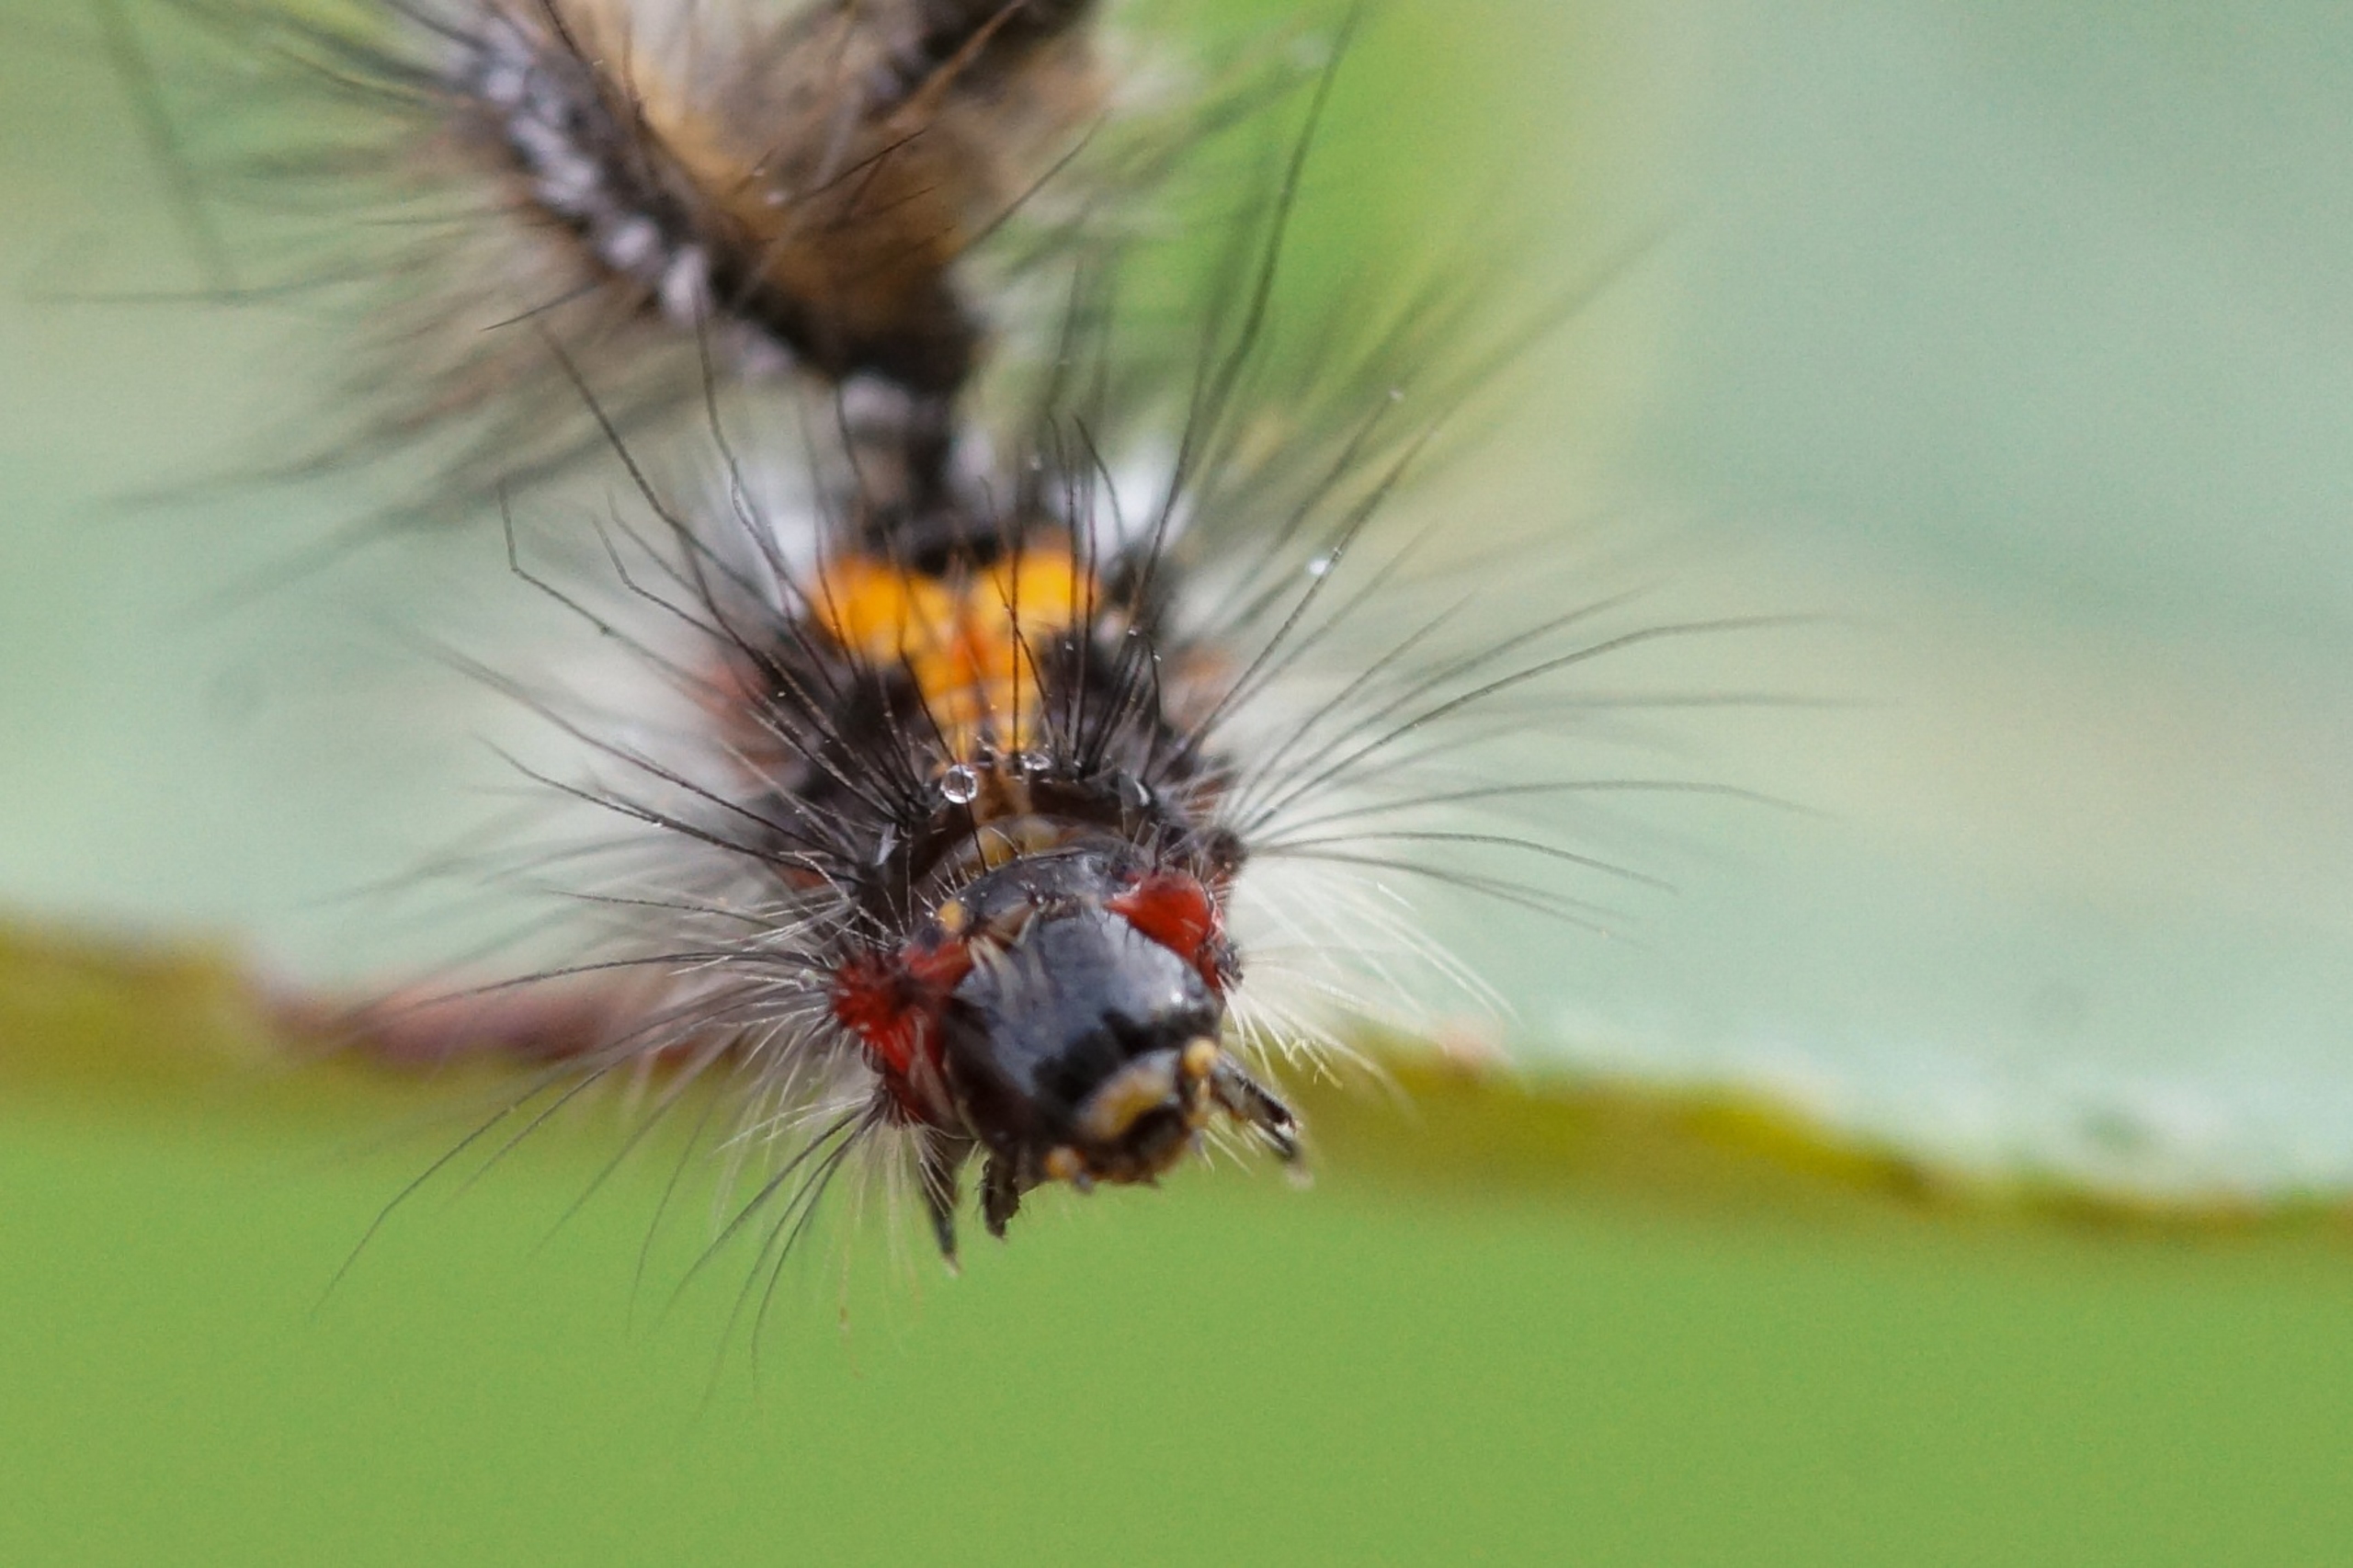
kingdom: Animalia
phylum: Arthropoda
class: Insecta
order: Lepidoptera
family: Erebidae
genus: Sphrageidus
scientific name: Sphrageidus similis
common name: Gulhale
